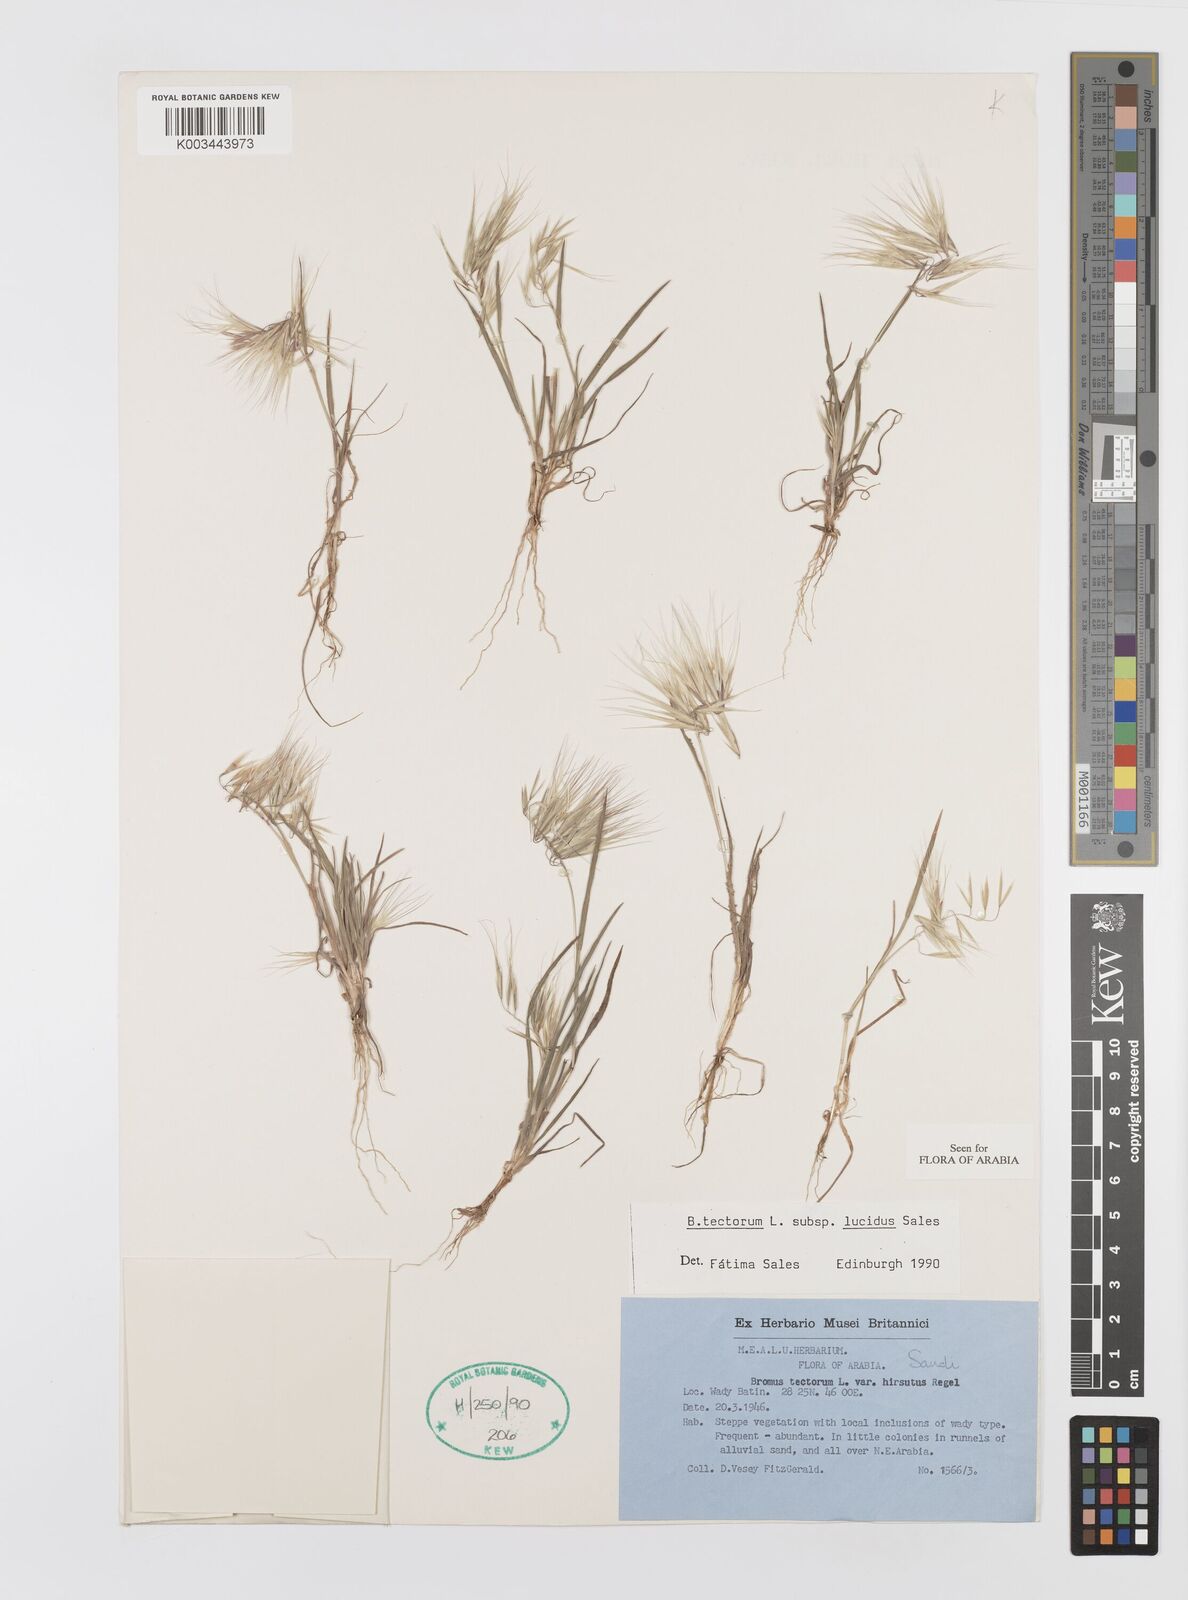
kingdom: Plantae
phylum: Tracheophyta
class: Liliopsida
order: Poales
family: Poaceae
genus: Bromus
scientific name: Bromus moeszii
